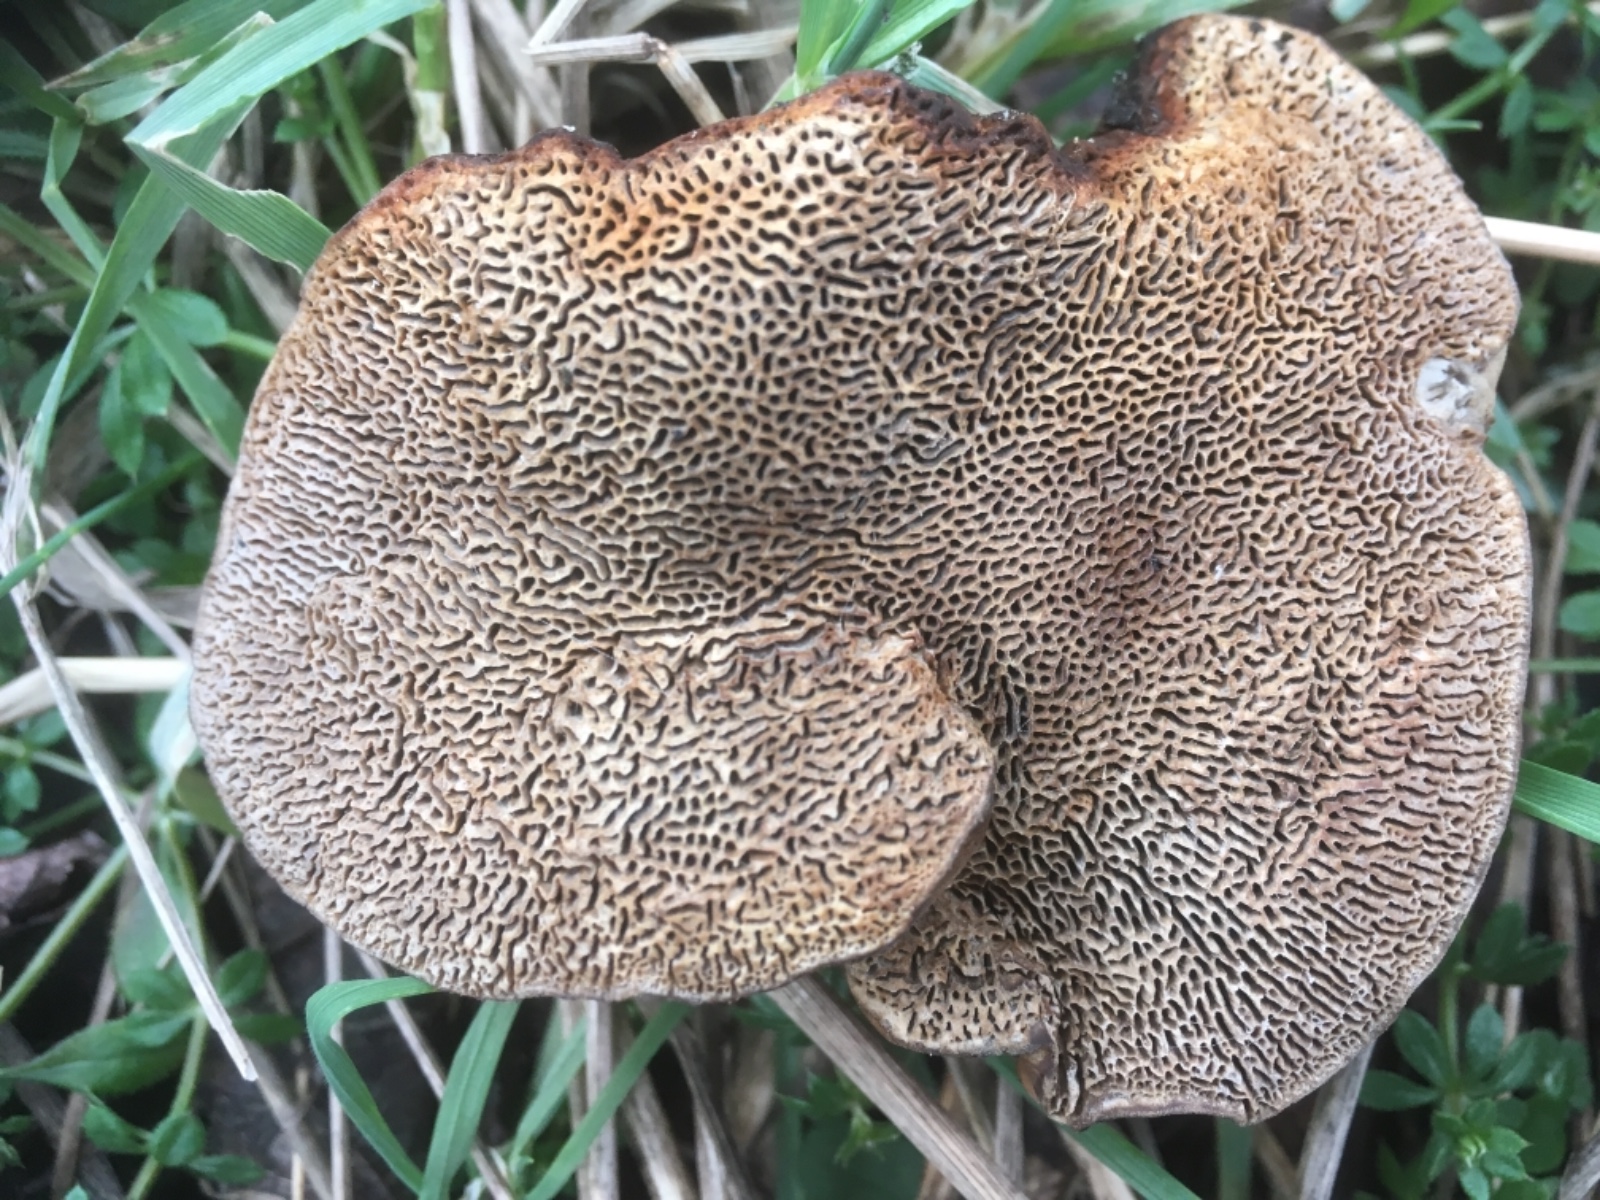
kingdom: Fungi
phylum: Basidiomycota
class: Agaricomycetes
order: Polyporales
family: Polyporaceae
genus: Daedaleopsis
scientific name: Daedaleopsis confragosa
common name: rødmende læderporesvamp
